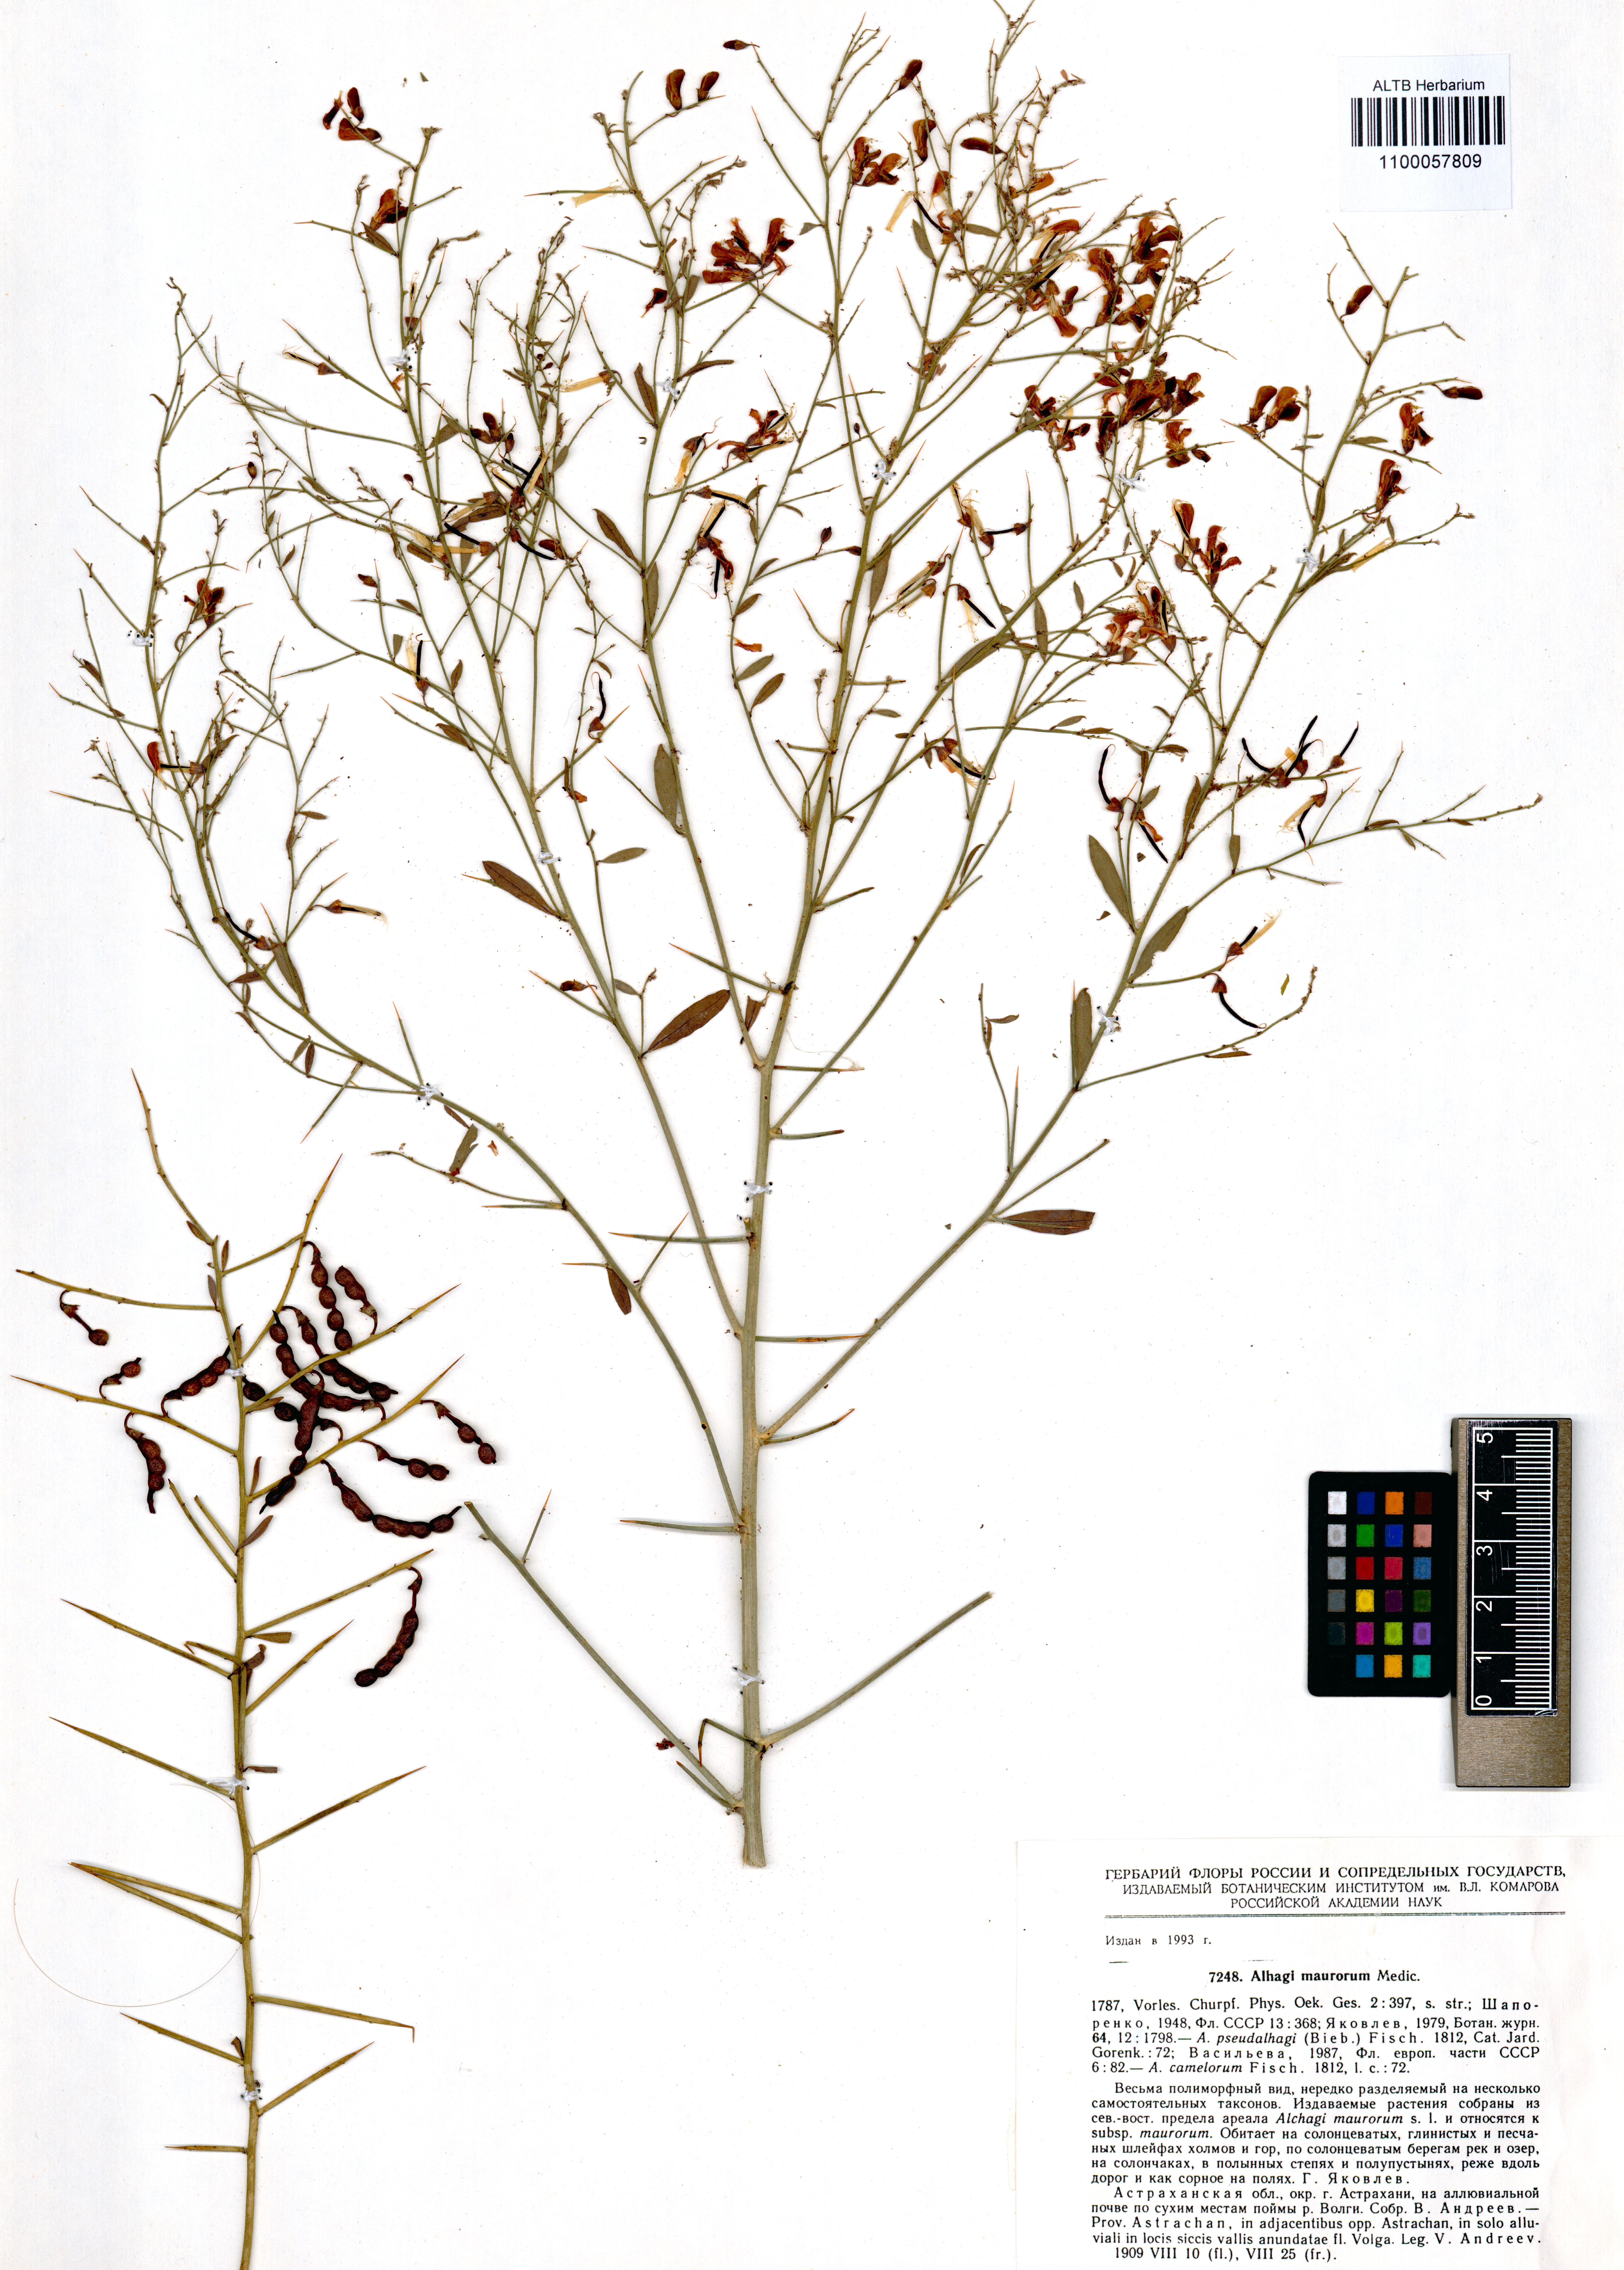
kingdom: Plantae
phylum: Tracheophyta
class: Magnoliopsida
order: Fabales
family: Fabaceae
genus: Alhagi
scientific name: Alhagi maurorum
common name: Camelthorn
